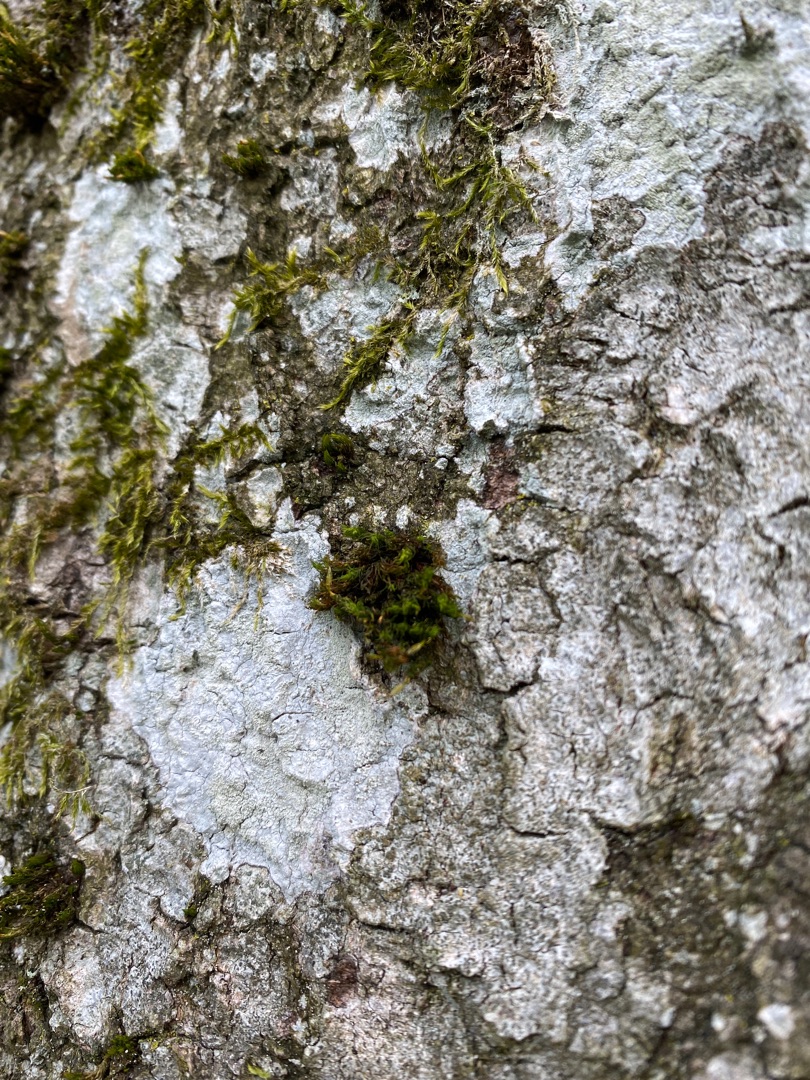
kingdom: Plantae
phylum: Bryophyta
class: Bryopsida
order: Orthotrichales
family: Orthotrichaceae
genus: Ulota
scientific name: Ulota
